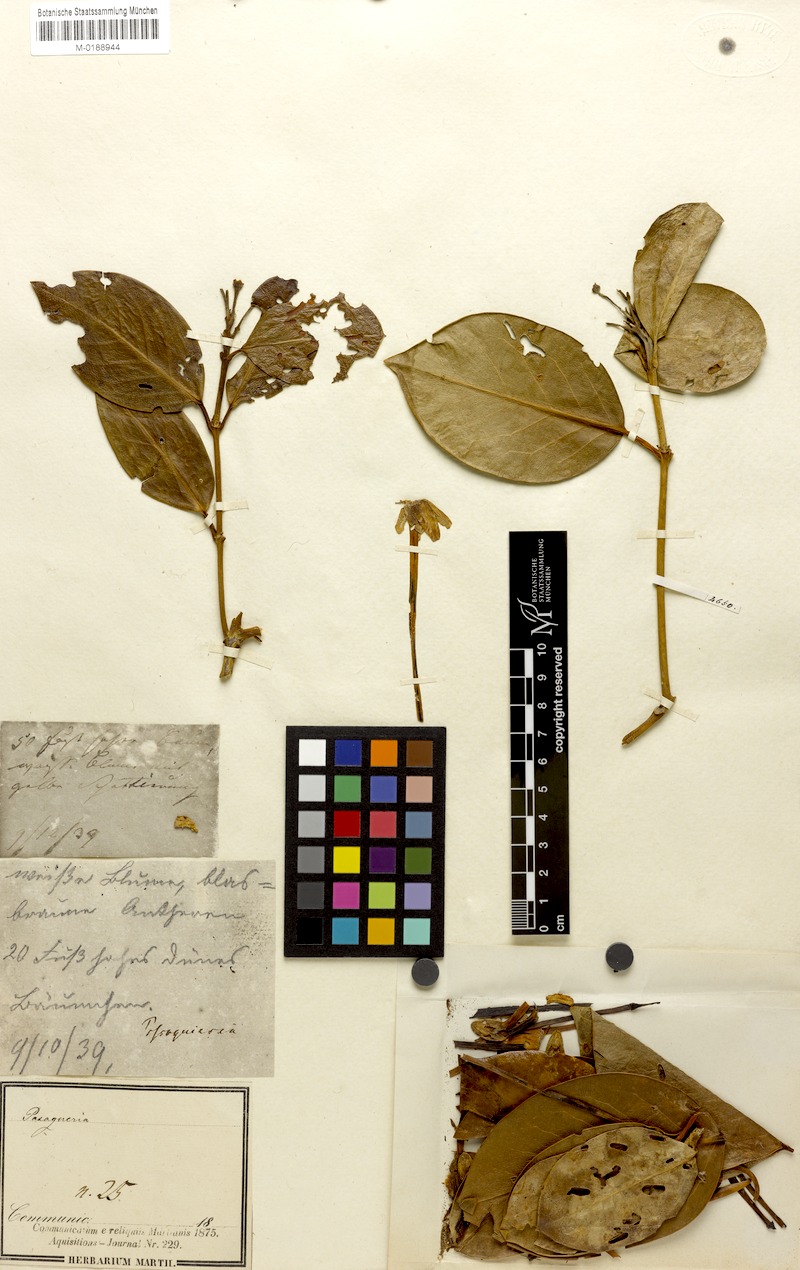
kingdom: Plantae
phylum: Tracheophyta
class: Magnoliopsida
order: Gentianales
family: Rubiaceae
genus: Posoqueria
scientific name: Posoqueria latifolia
